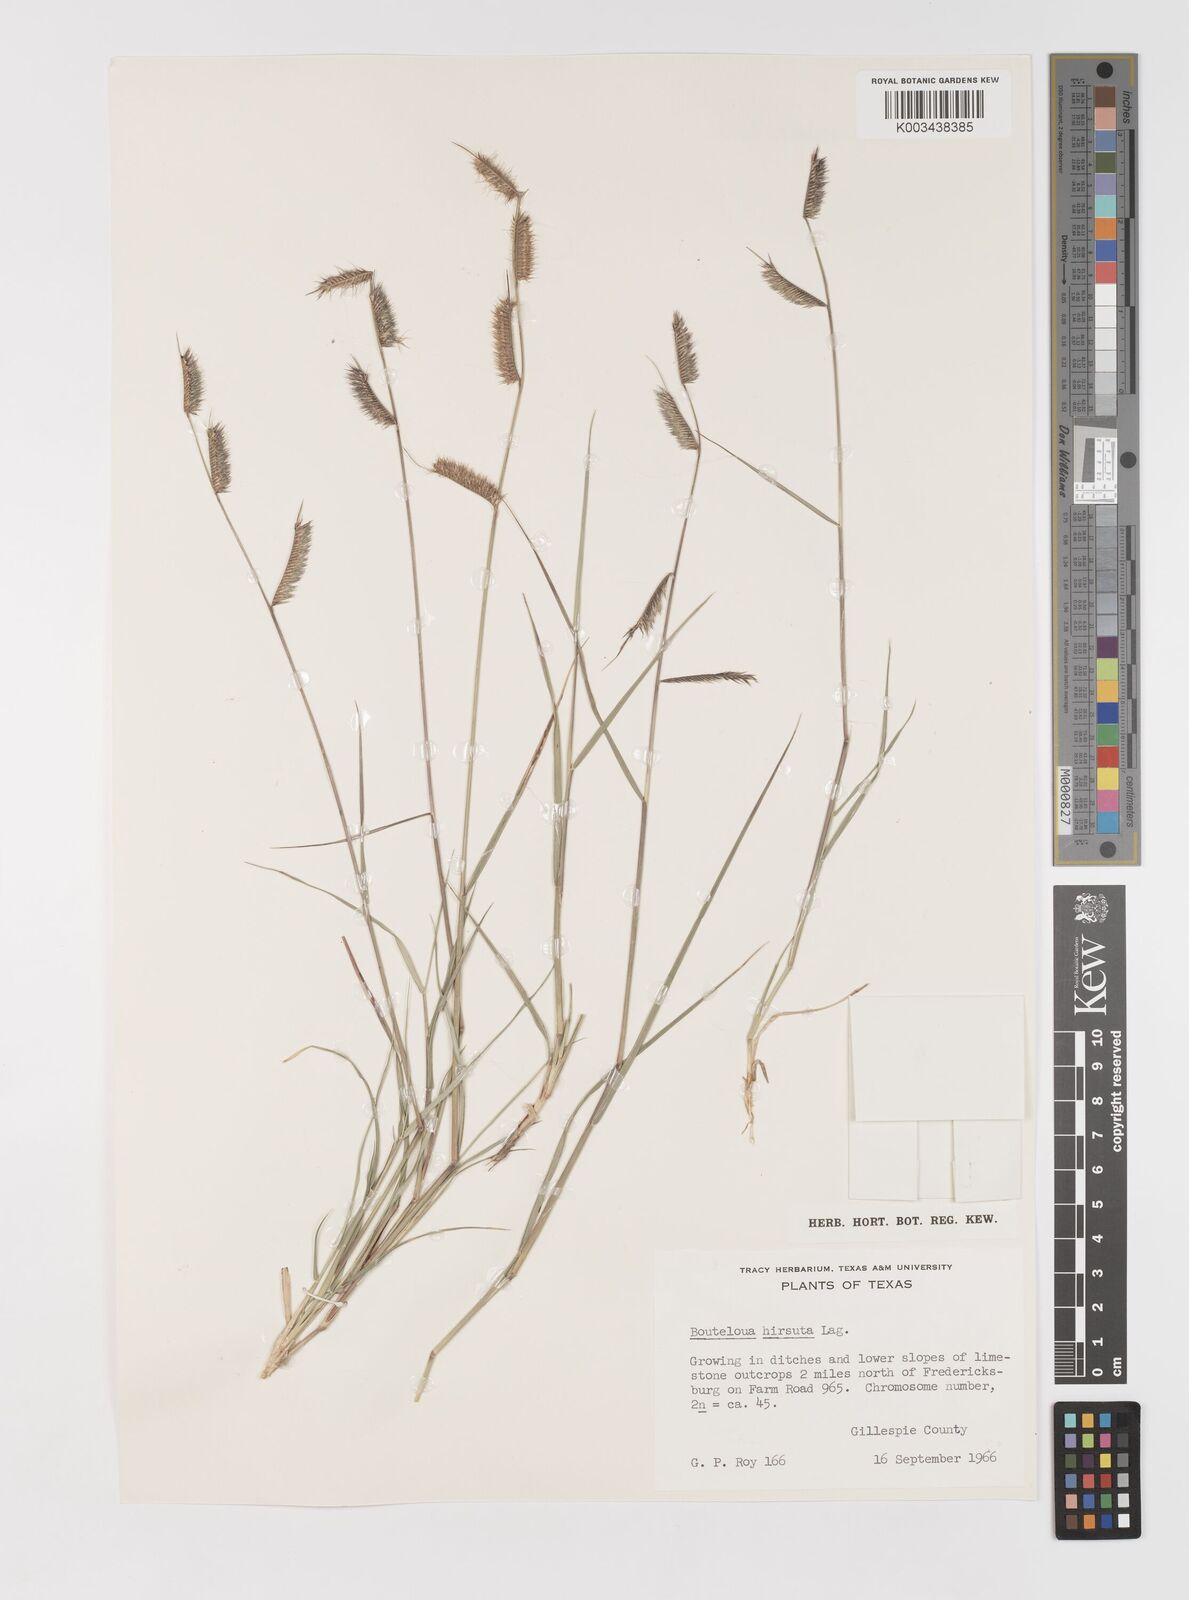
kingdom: Plantae
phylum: Tracheophyta
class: Liliopsida
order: Poales
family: Poaceae
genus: Bouteloua
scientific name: Bouteloua hirsuta
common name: Hairy grama
